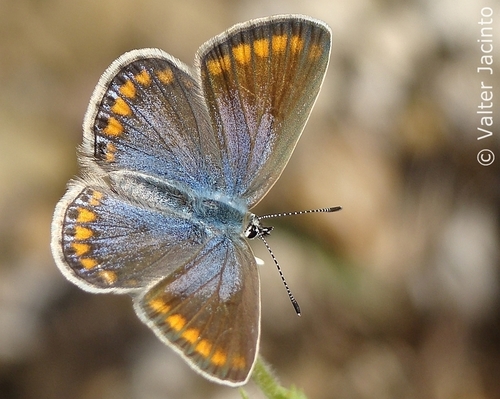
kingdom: Animalia
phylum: Arthropoda
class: Insecta
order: Lepidoptera
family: Lycaenidae
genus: Polyommatus
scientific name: Polyommatus icarus
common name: Common blue
